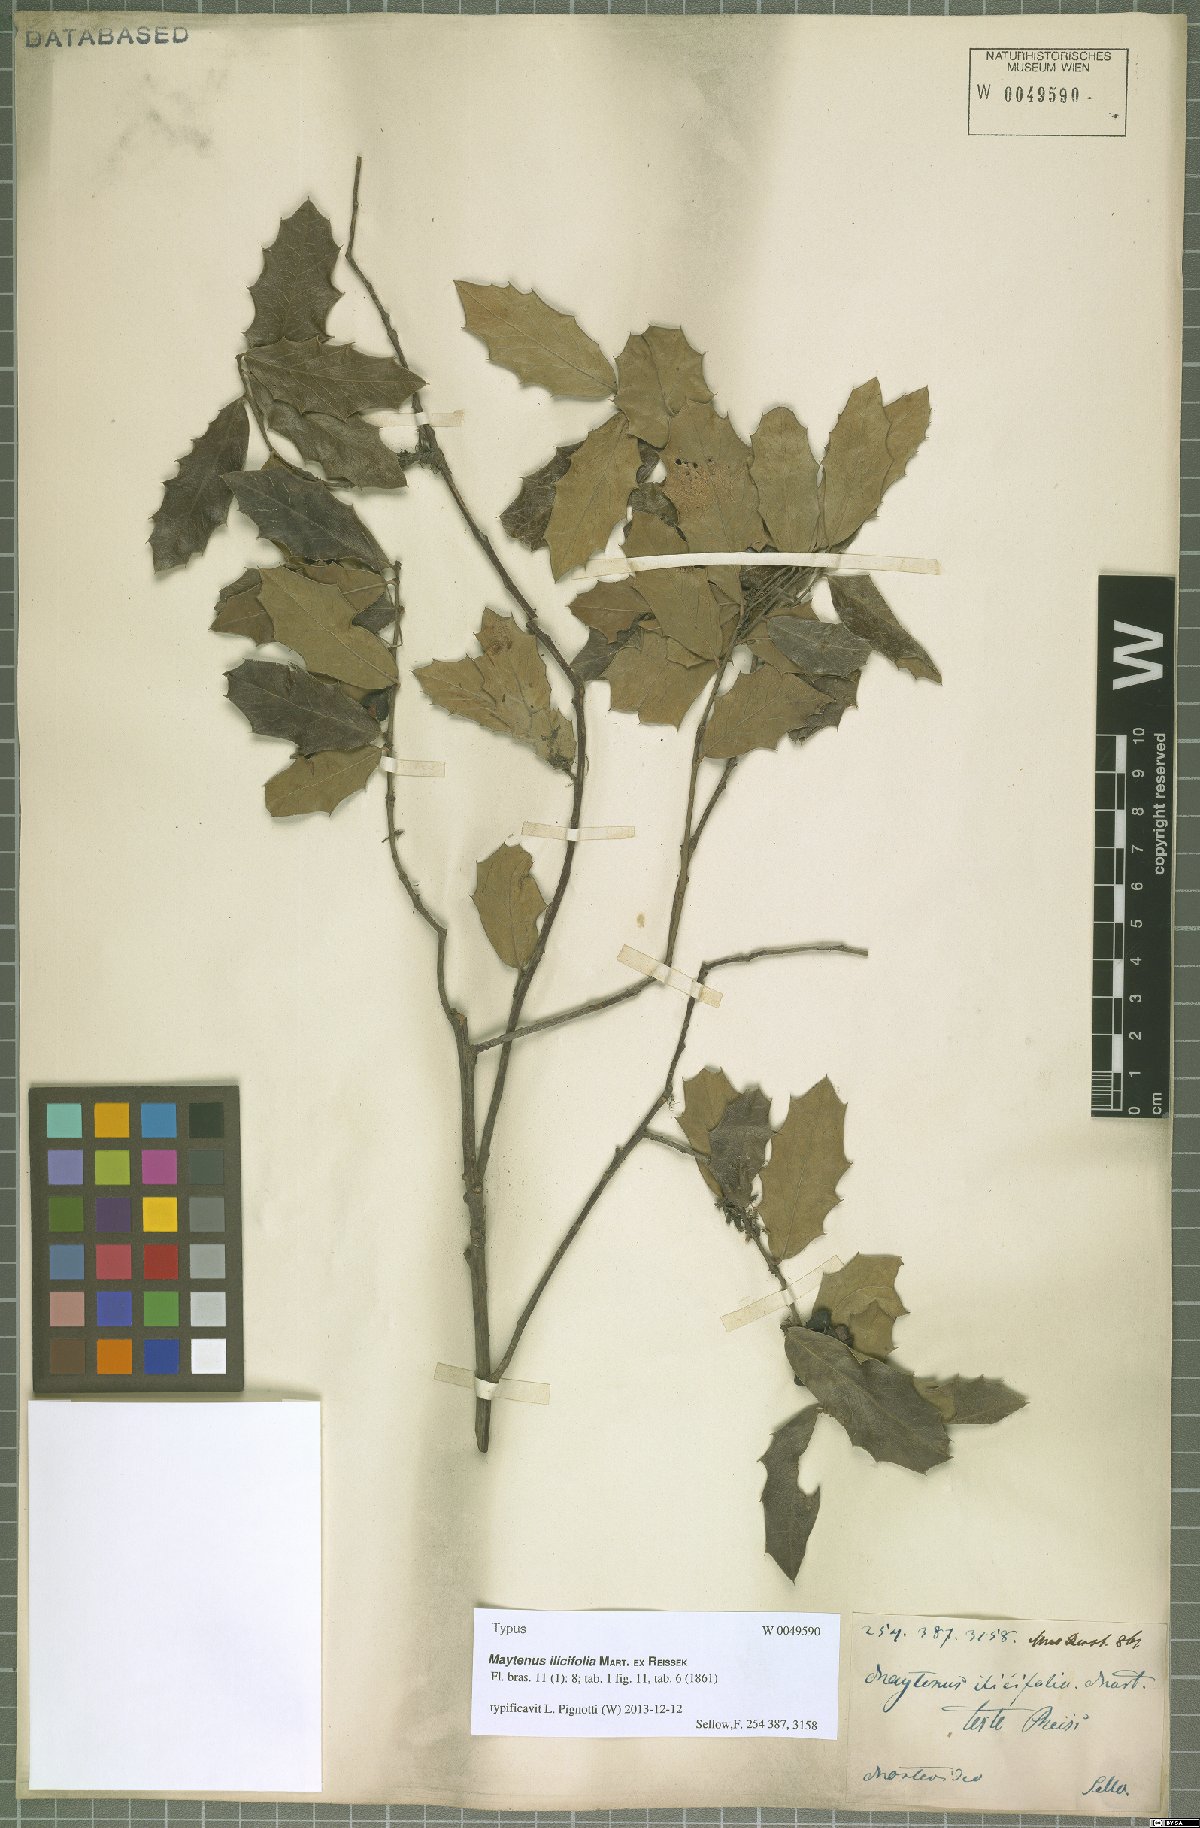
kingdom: Plantae
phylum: Tracheophyta
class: Magnoliopsida
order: Celastrales
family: Celastraceae
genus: Monteverdia
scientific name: Monteverdia ilicifolia
